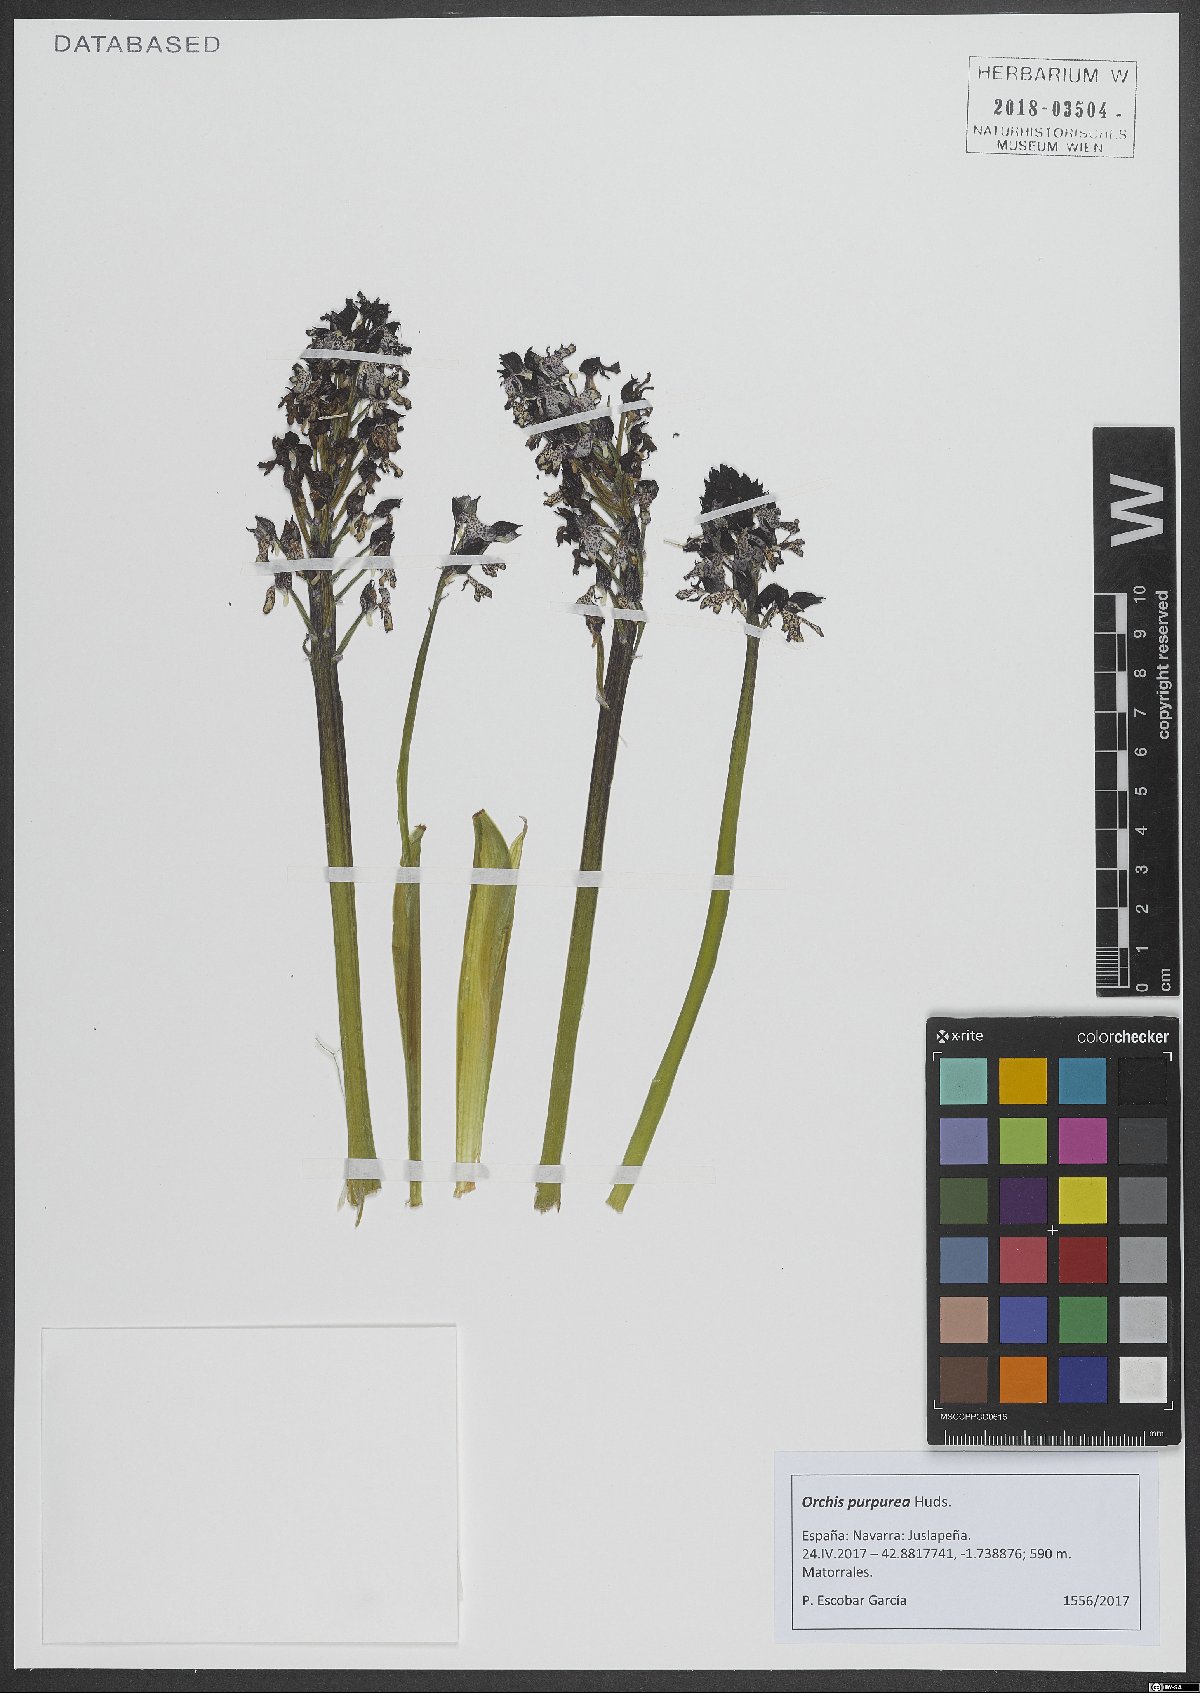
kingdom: Plantae
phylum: Tracheophyta
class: Liliopsida
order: Asparagales
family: Orchidaceae
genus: Orchis
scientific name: Orchis purpurea
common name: Lady orchid
